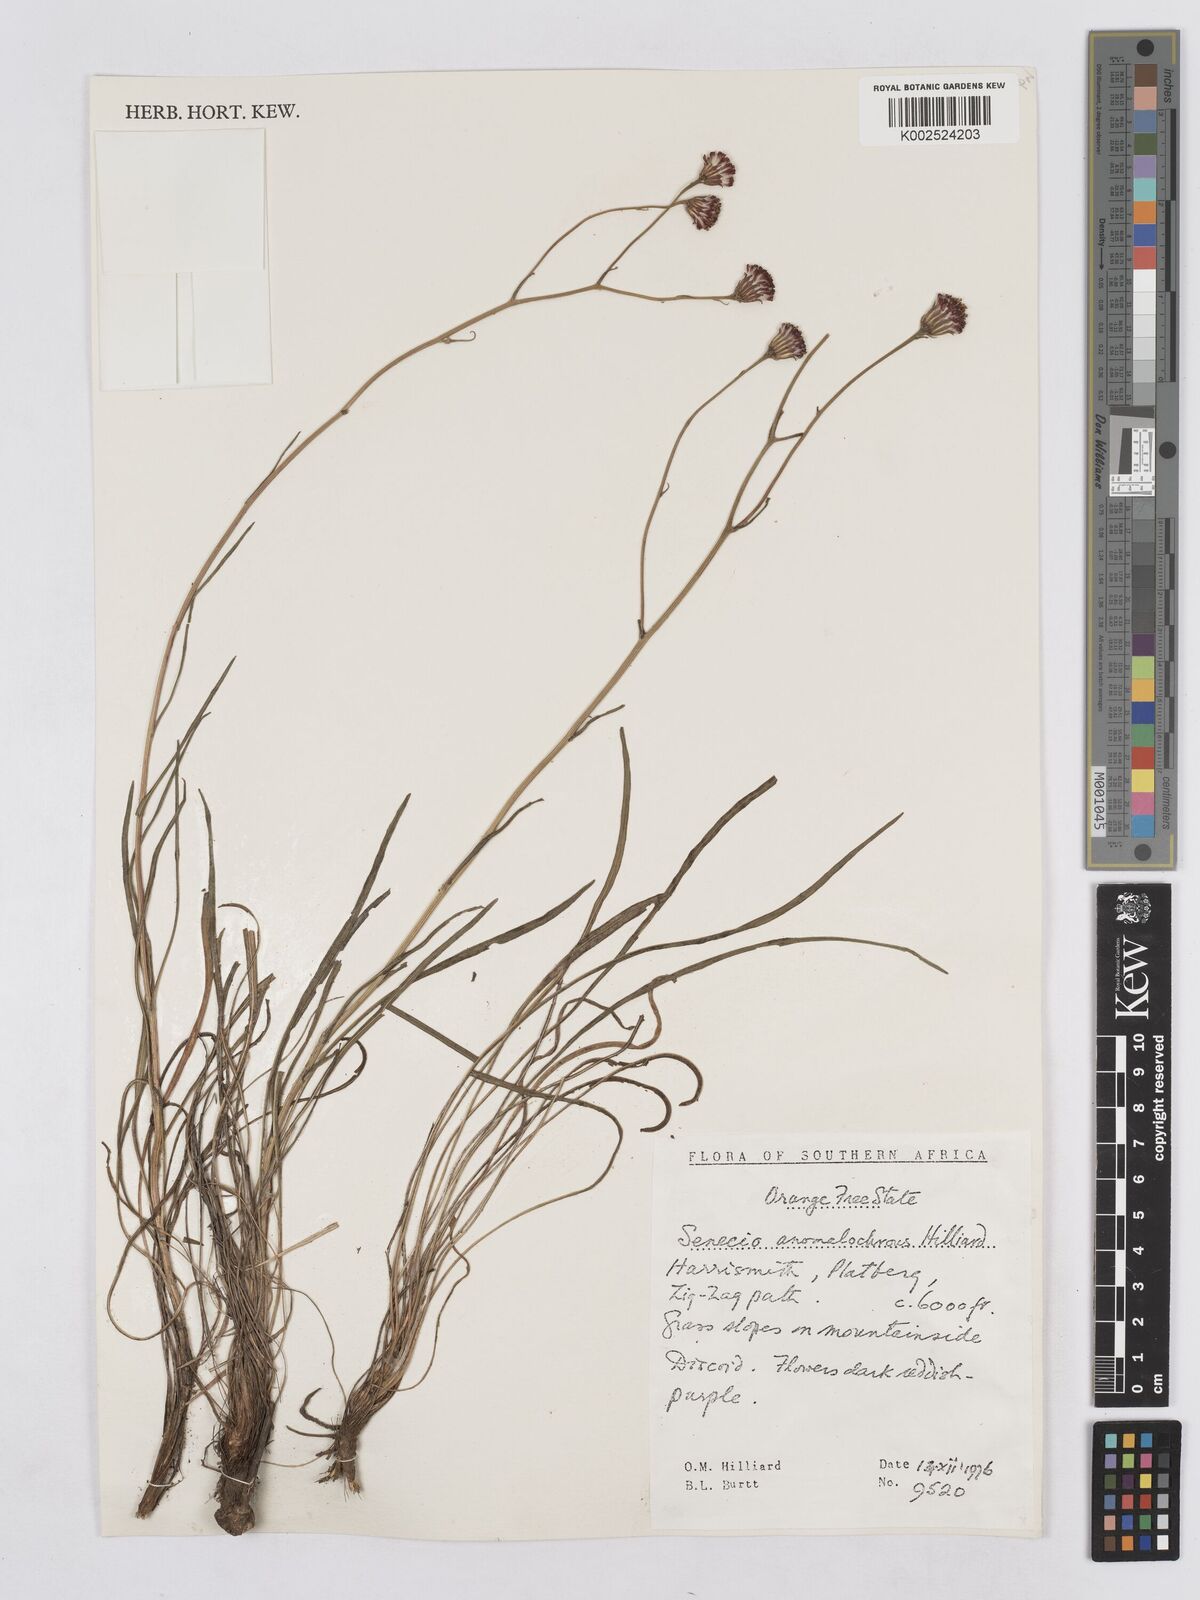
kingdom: Plantae
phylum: Tracheophyta
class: Magnoliopsida
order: Asterales
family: Asteraceae
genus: Senecio
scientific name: Senecio anomalochrous
